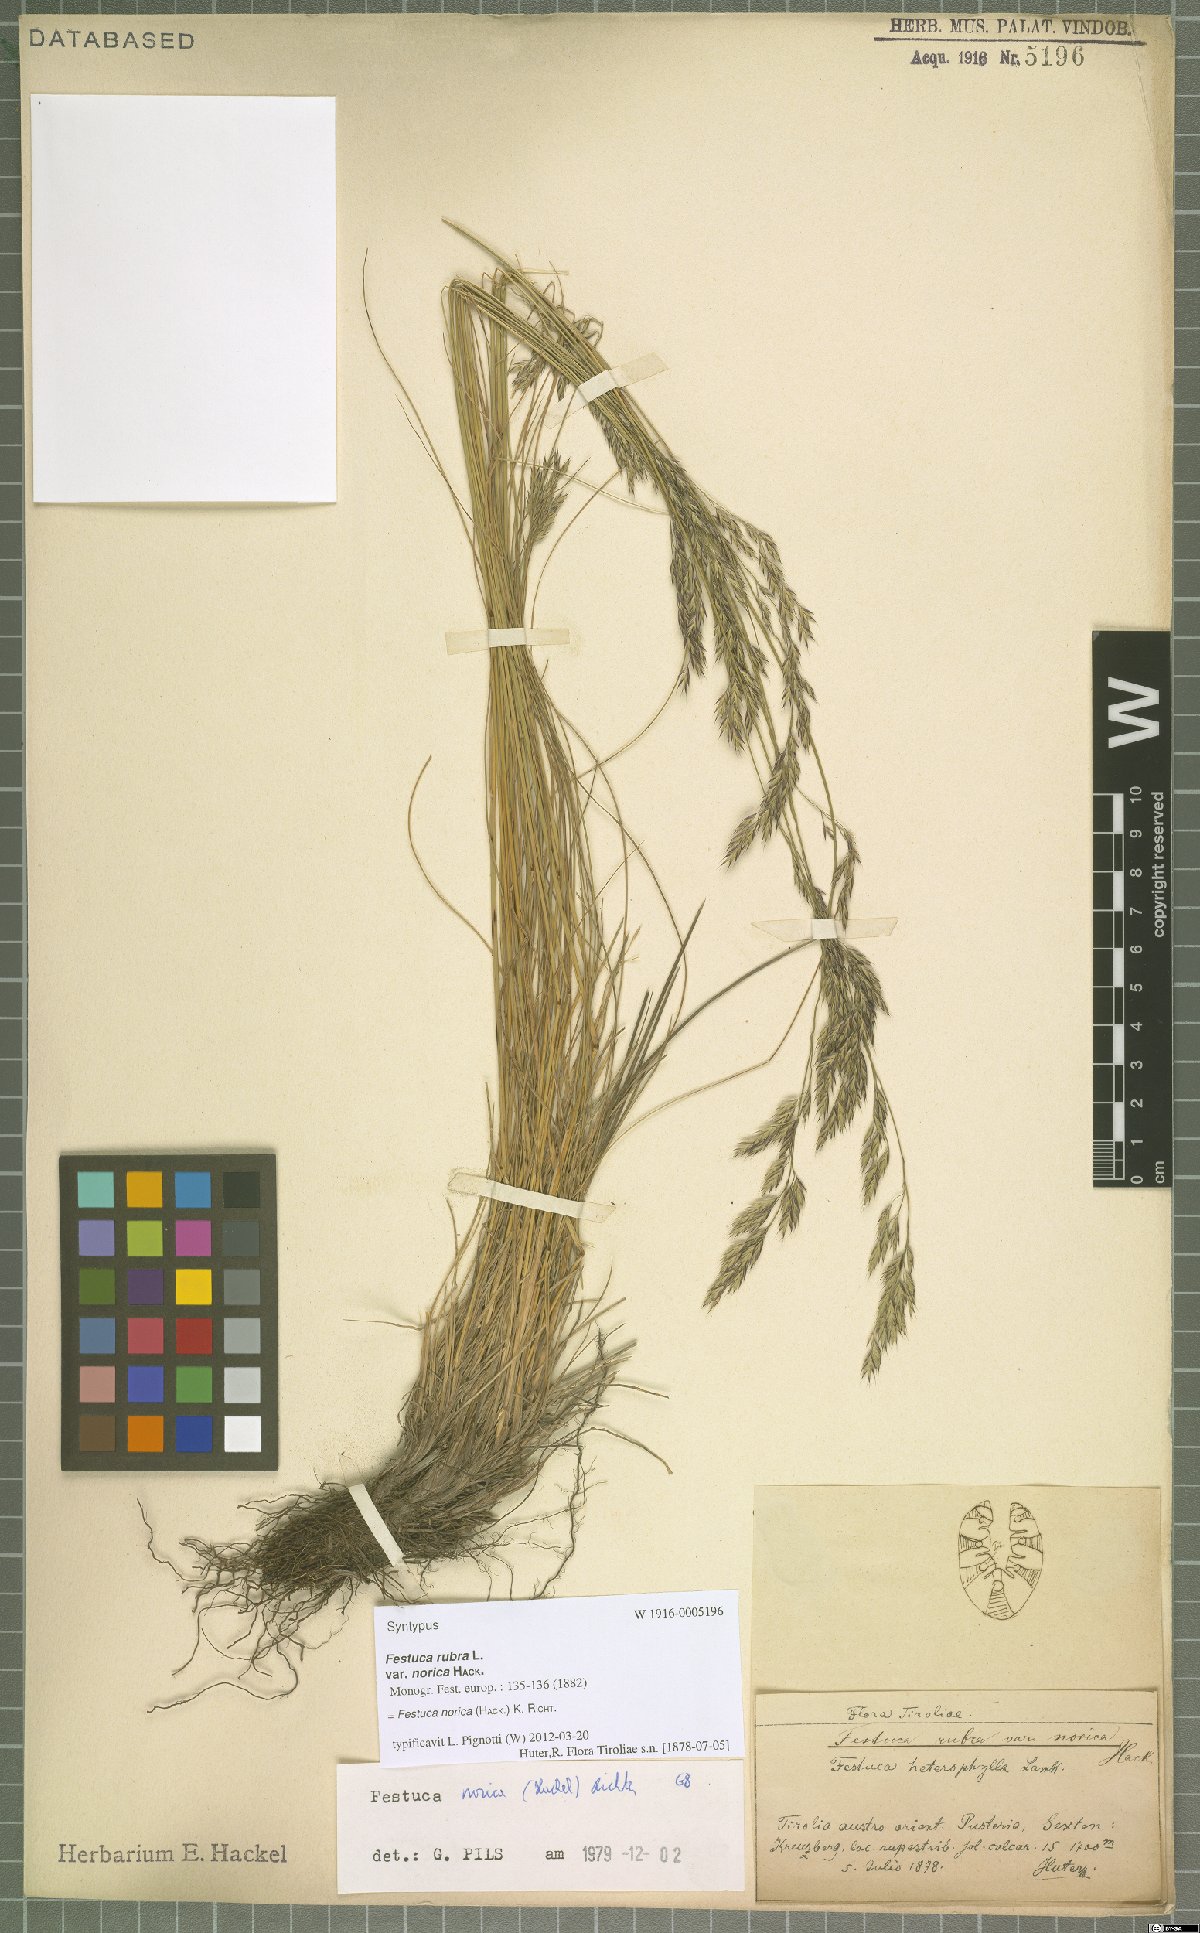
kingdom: Plantae
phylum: Tracheophyta
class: Liliopsida
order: Poales
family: Poaceae
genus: Festuca
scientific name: Festuca norica
